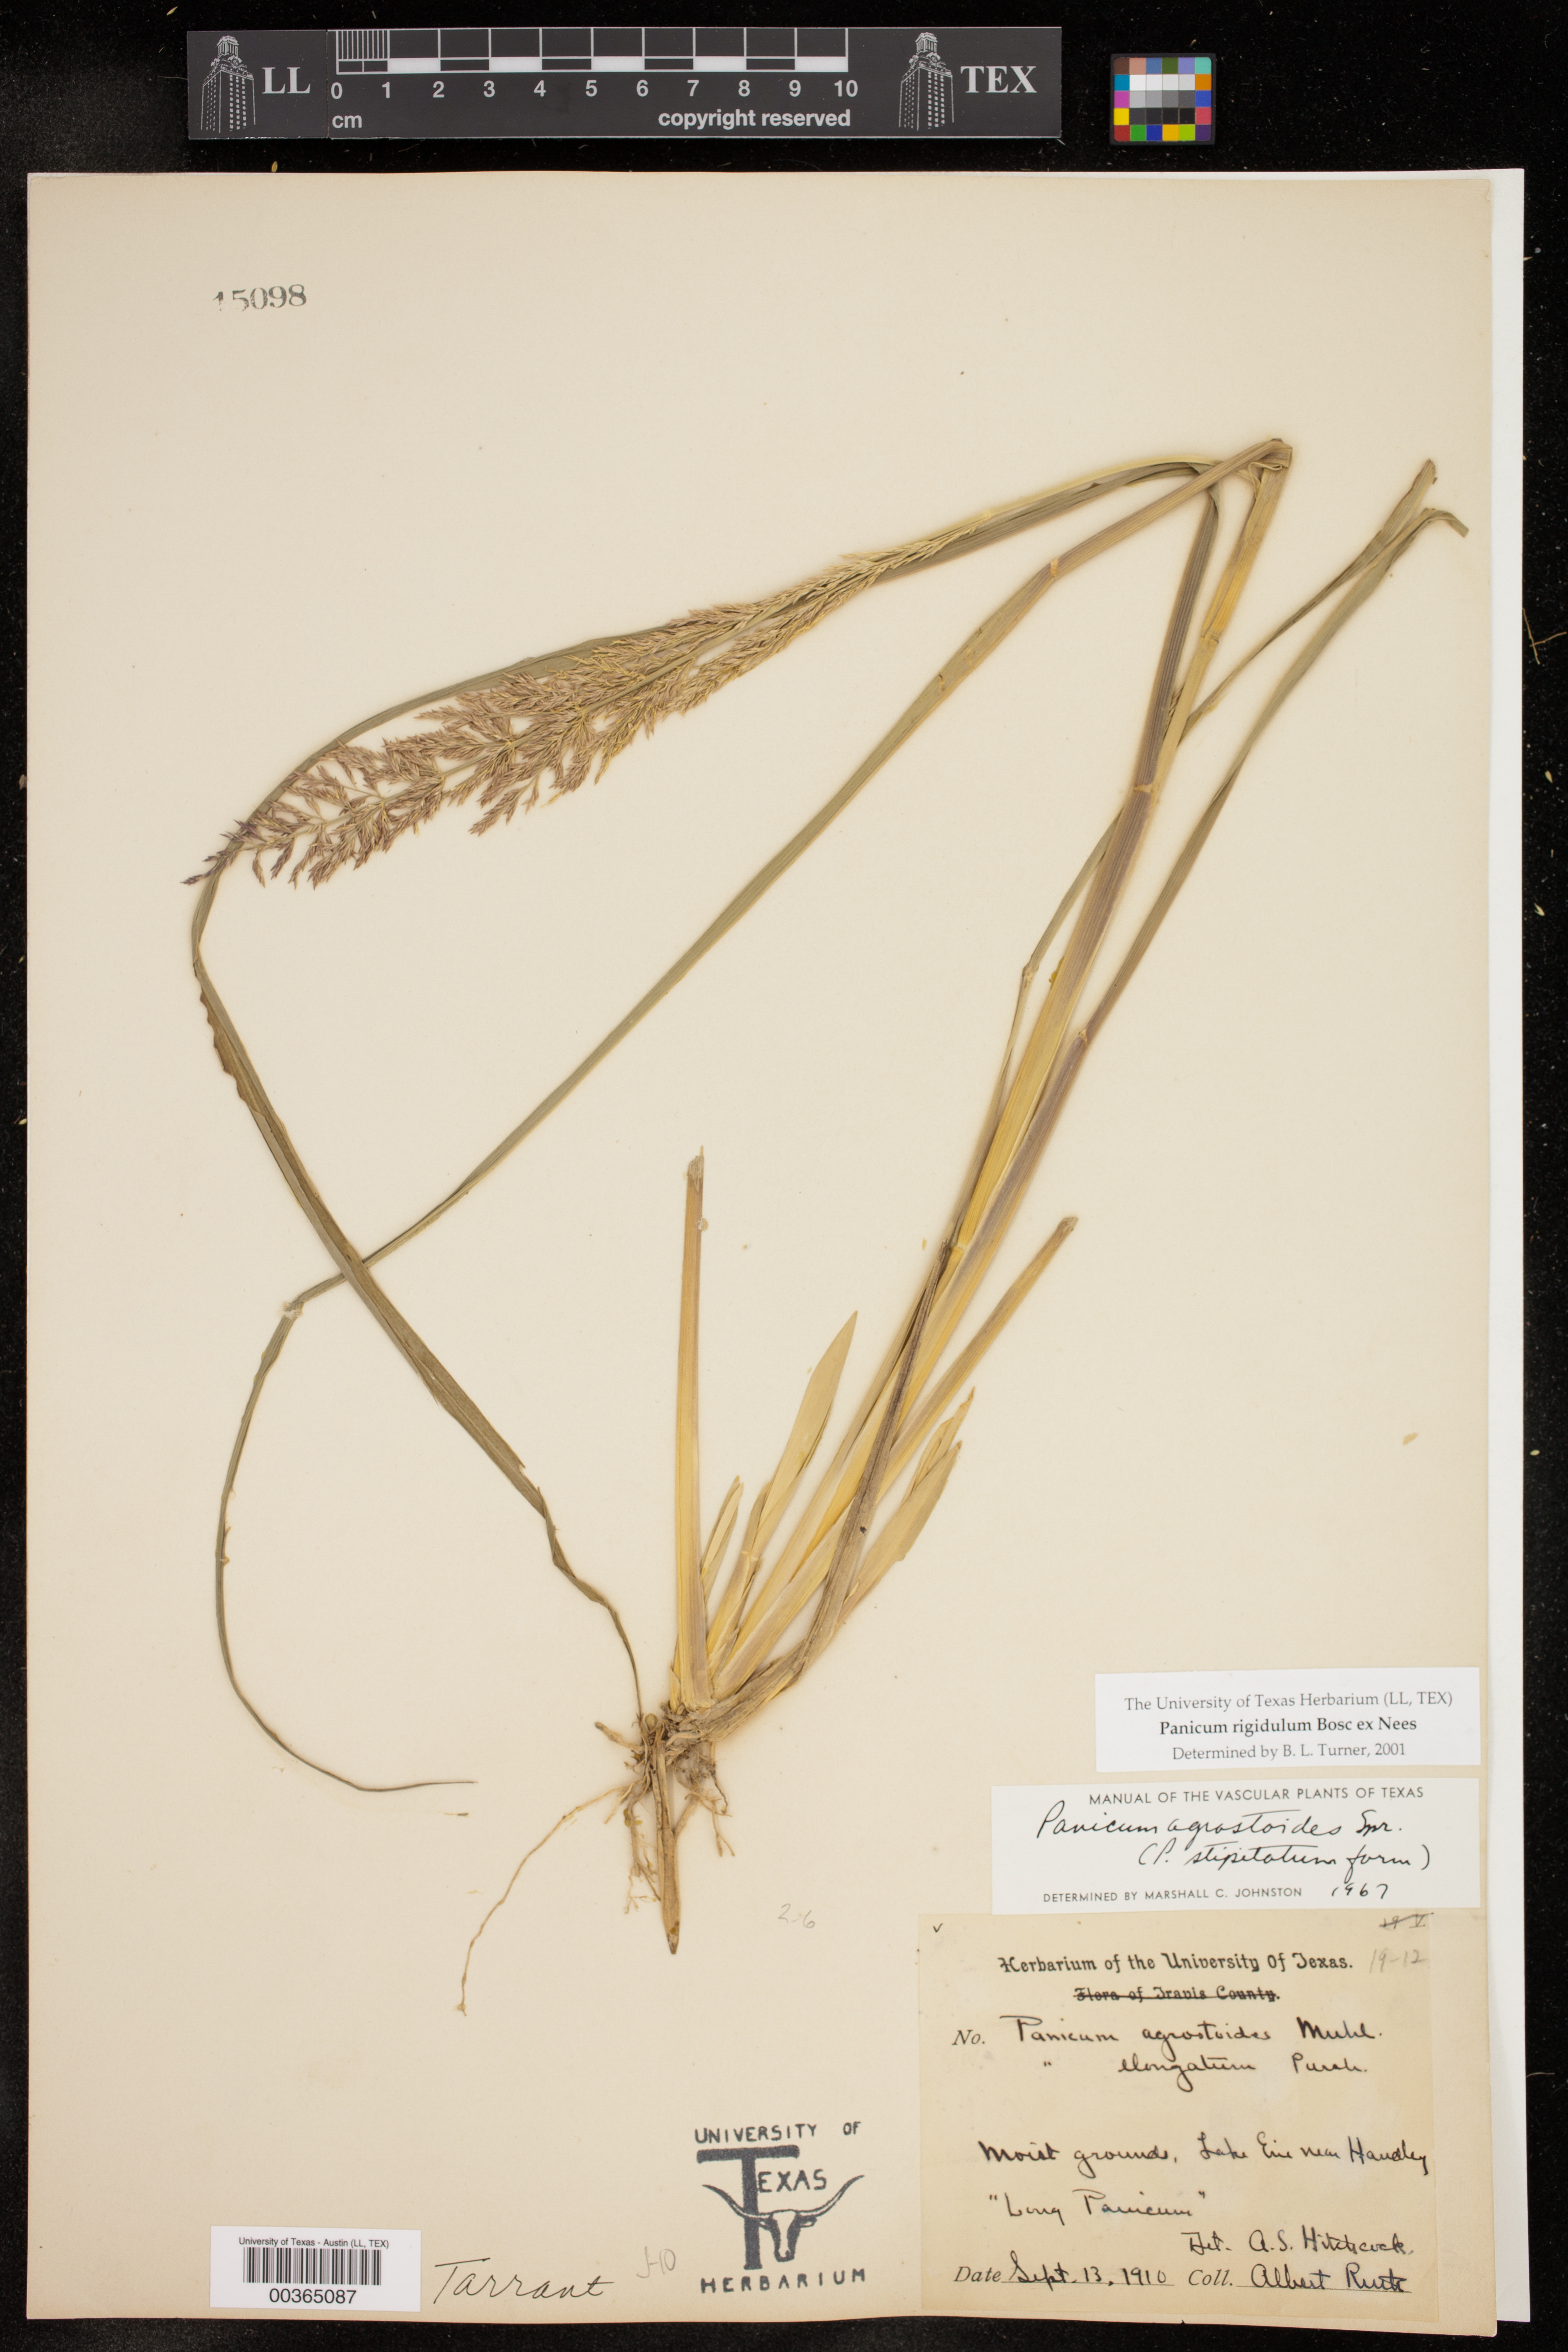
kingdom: Plantae
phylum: Tracheophyta
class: Liliopsida
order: Poales
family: Poaceae
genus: Coleataenia
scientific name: Coleataenia rigidula
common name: Redtop panicgrass
